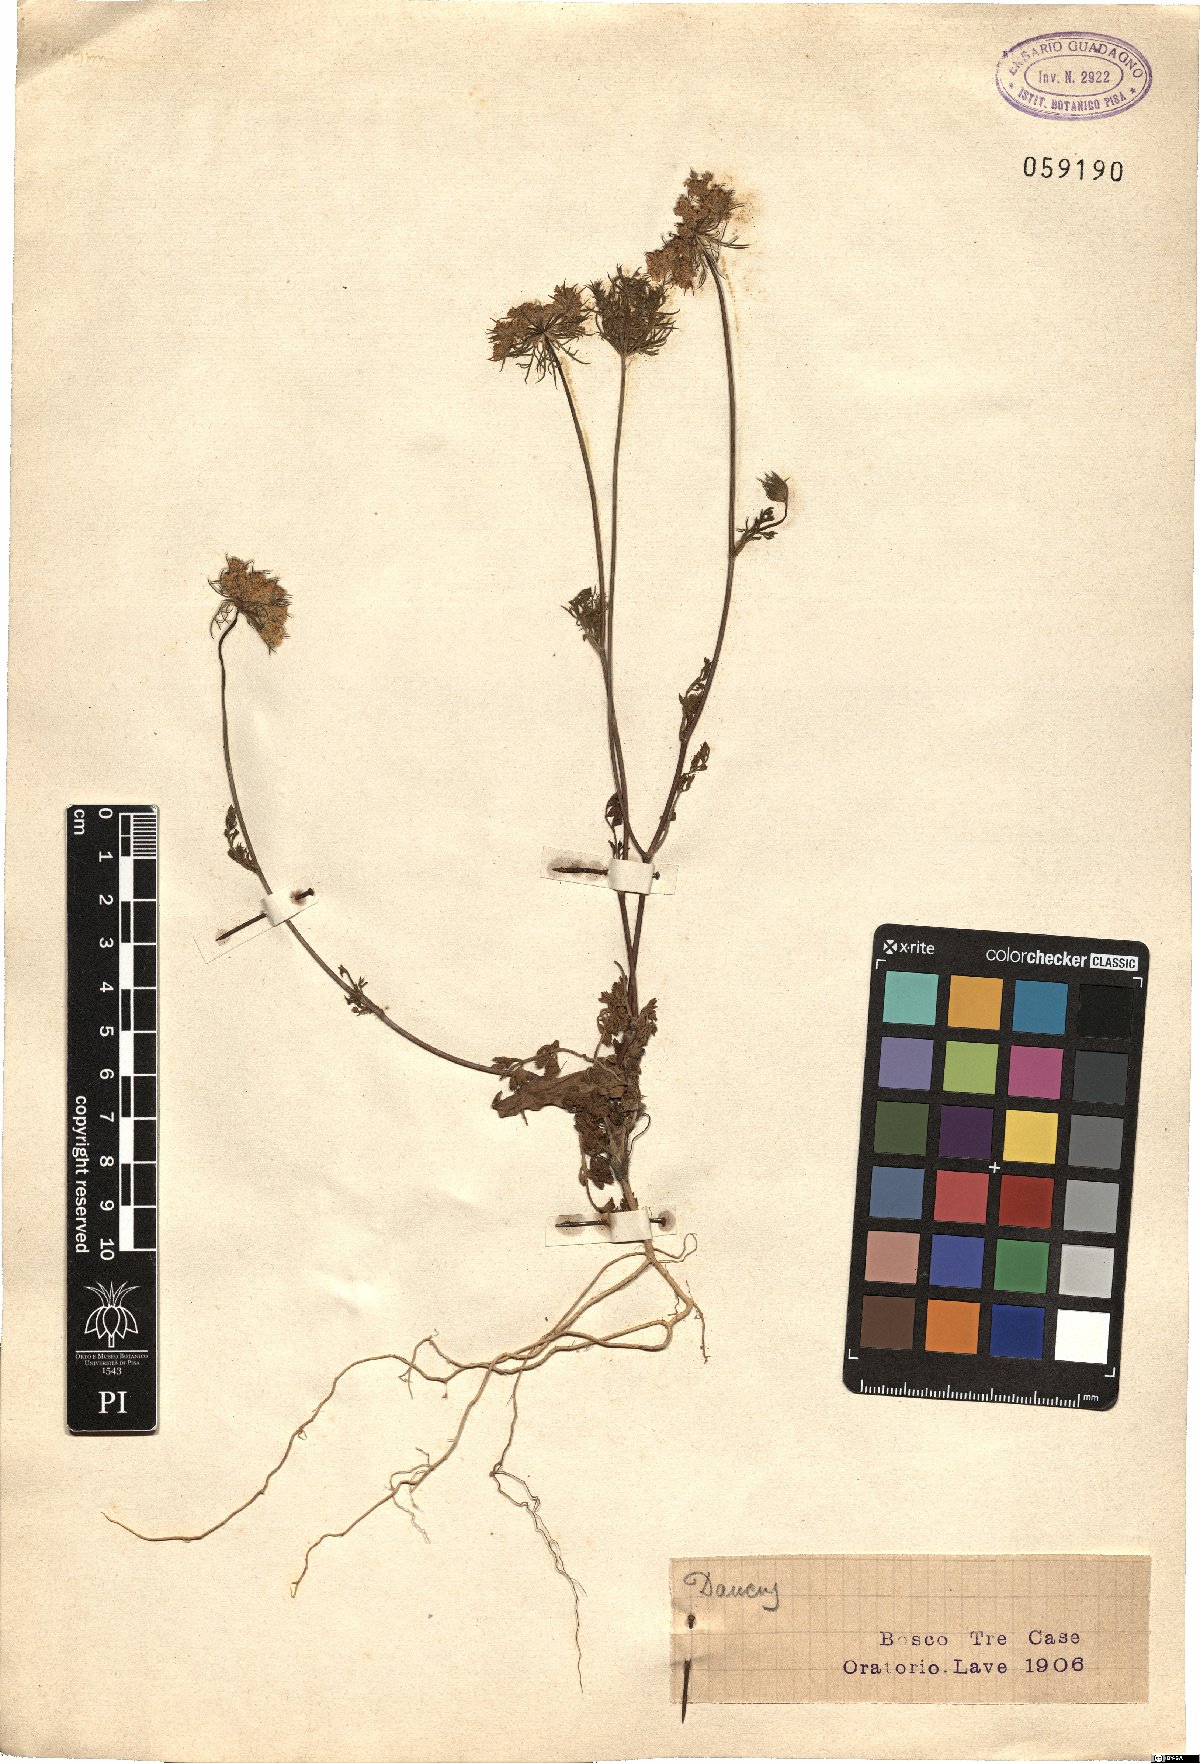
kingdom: Plantae
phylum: Tracheophyta
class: Magnoliopsida
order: Apiales
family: Apiaceae
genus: Daucus
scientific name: Daucus
